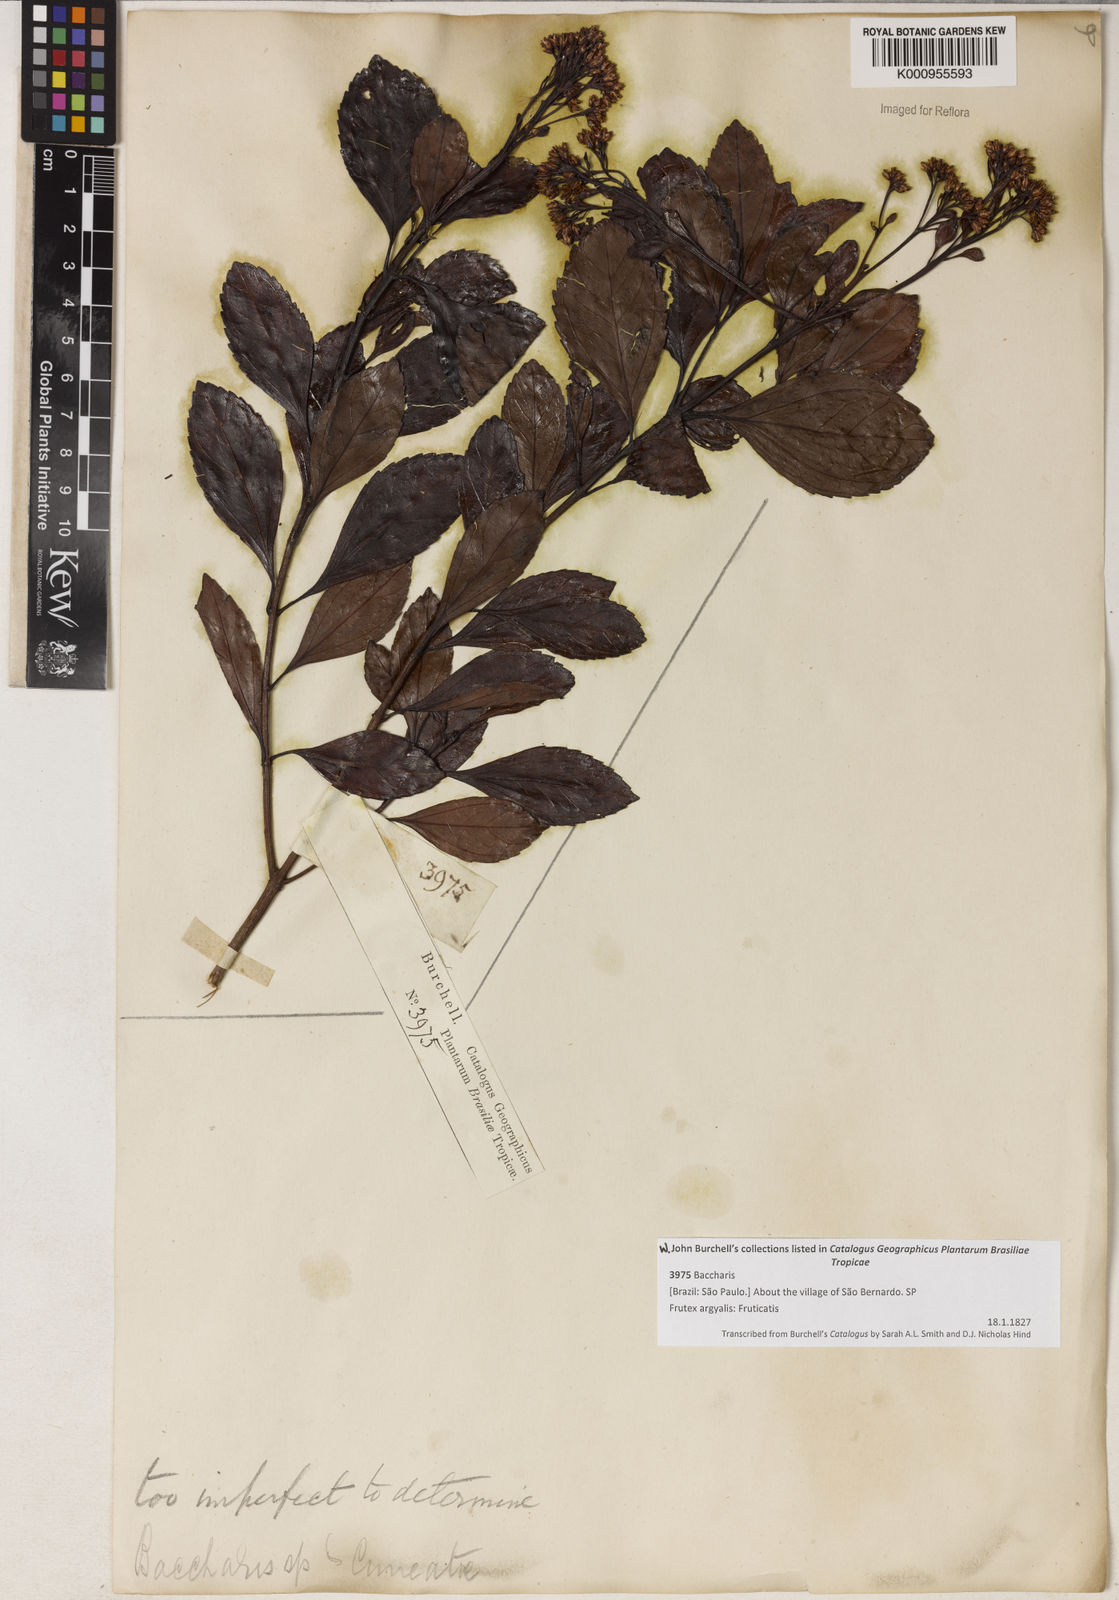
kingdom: Plantae
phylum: Tracheophyta
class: Magnoliopsida
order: Asterales
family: Asteraceae
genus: Baccharis
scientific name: Baccharis
